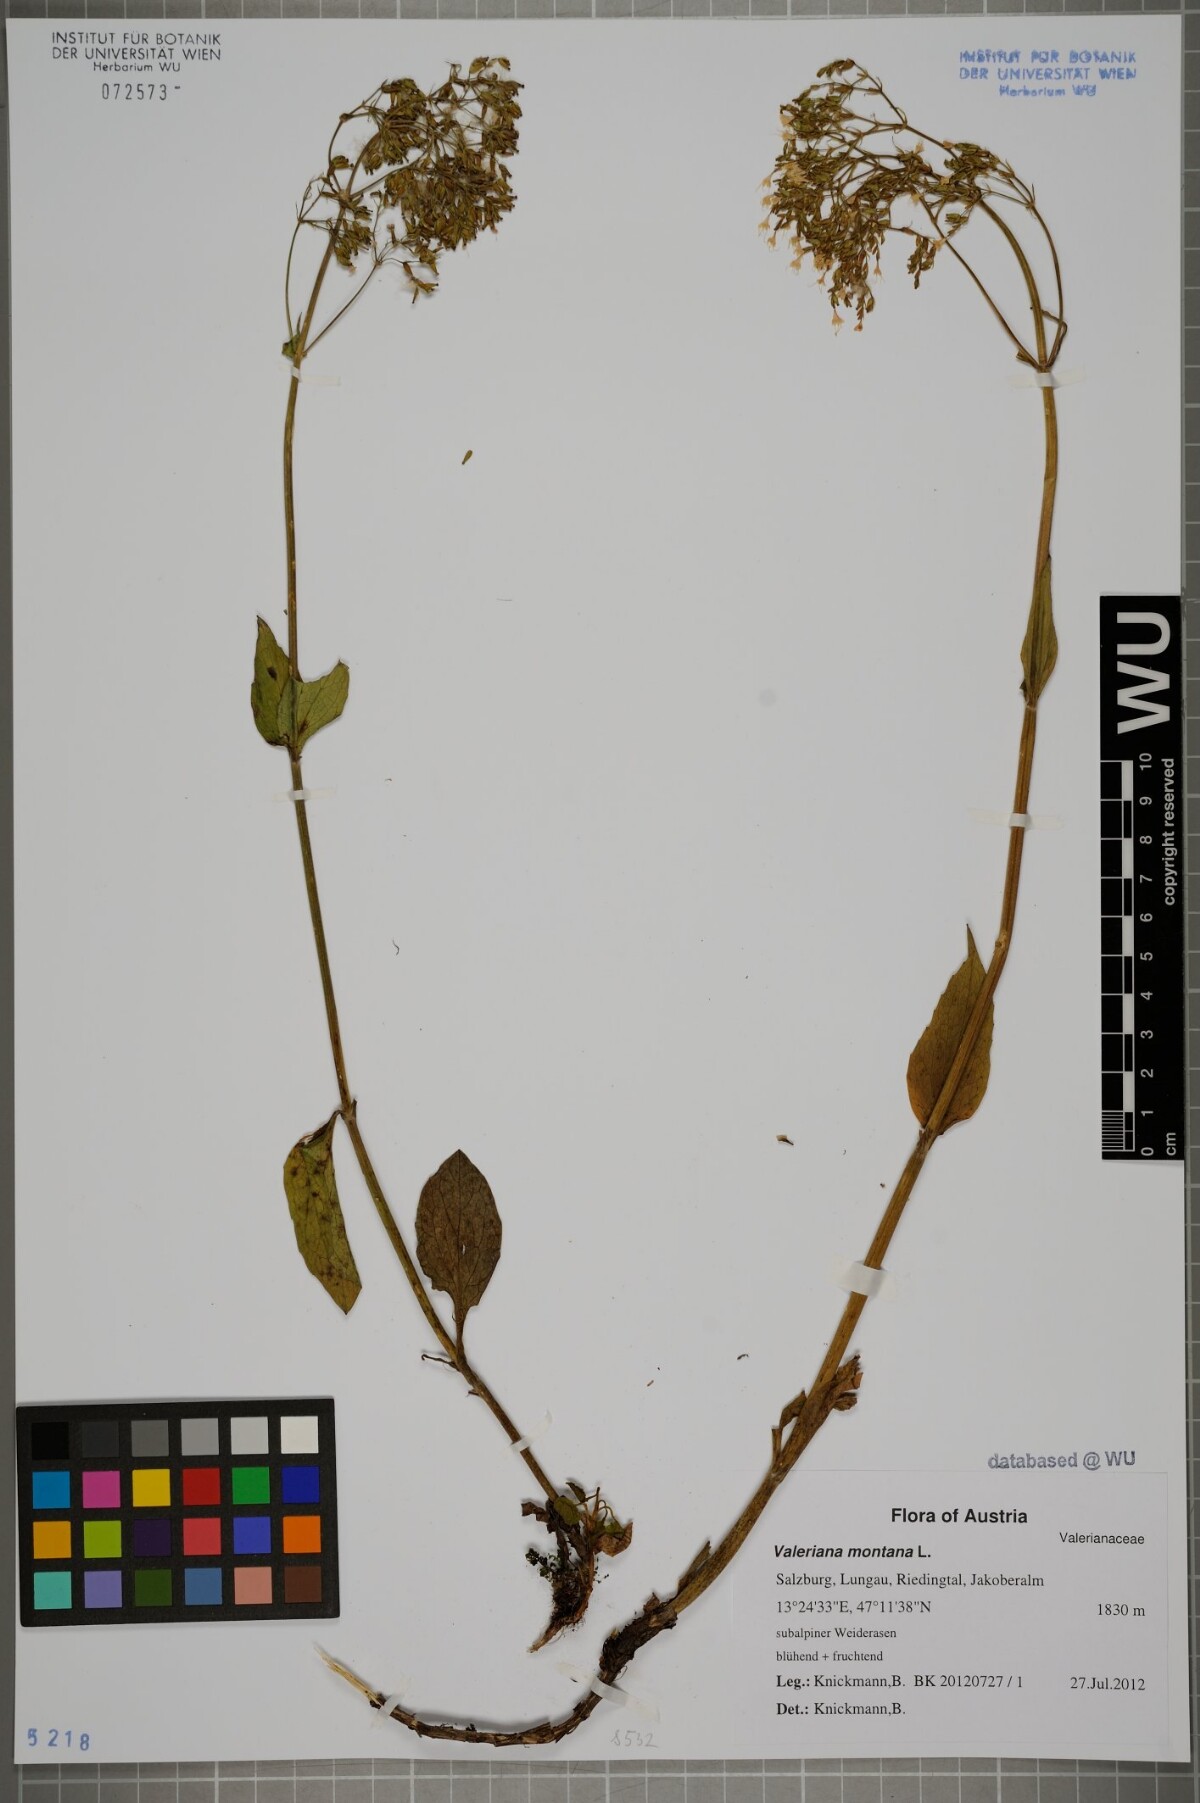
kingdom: Plantae
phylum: Tracheophyta
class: Magnoliopsida
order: Dipsacales
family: Caprifoliaceae
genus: Valeriana
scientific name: Valeriana montana
